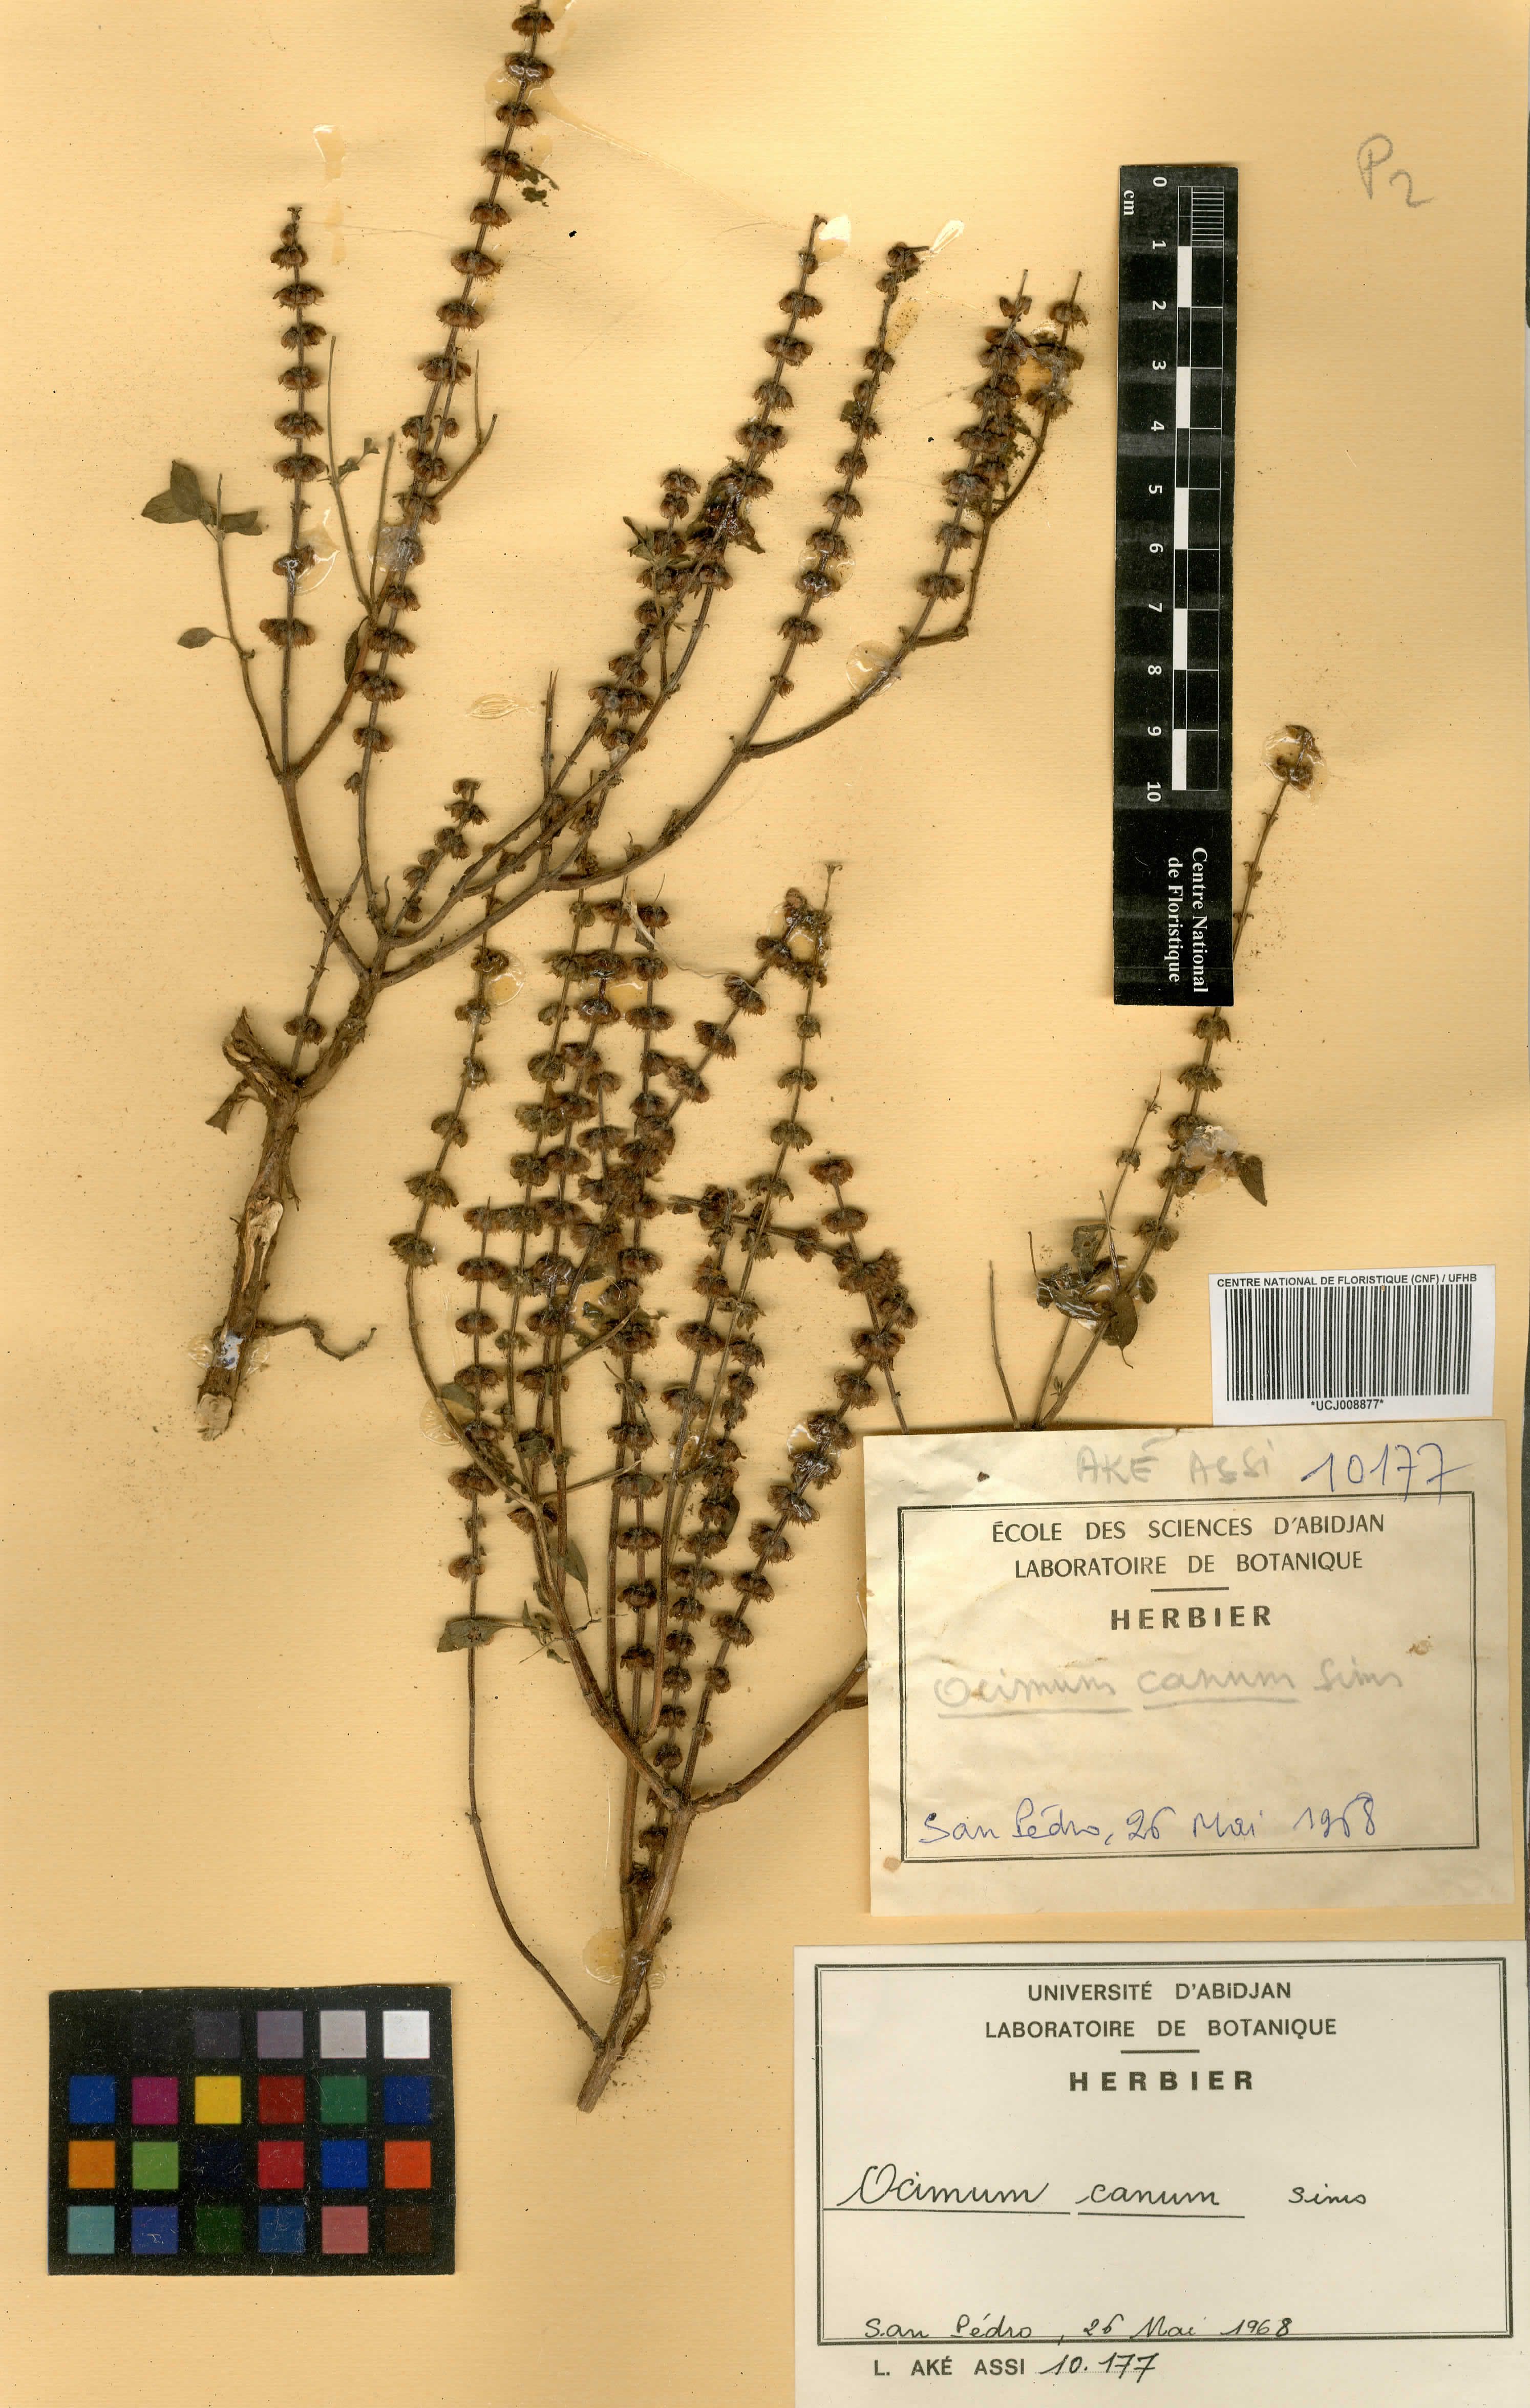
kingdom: Plantae
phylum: Tracheophyta
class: Magnoliopsida
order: Lamiales
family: Lamiaceae
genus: Ocimum
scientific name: Ocimum americanum
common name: American basil
